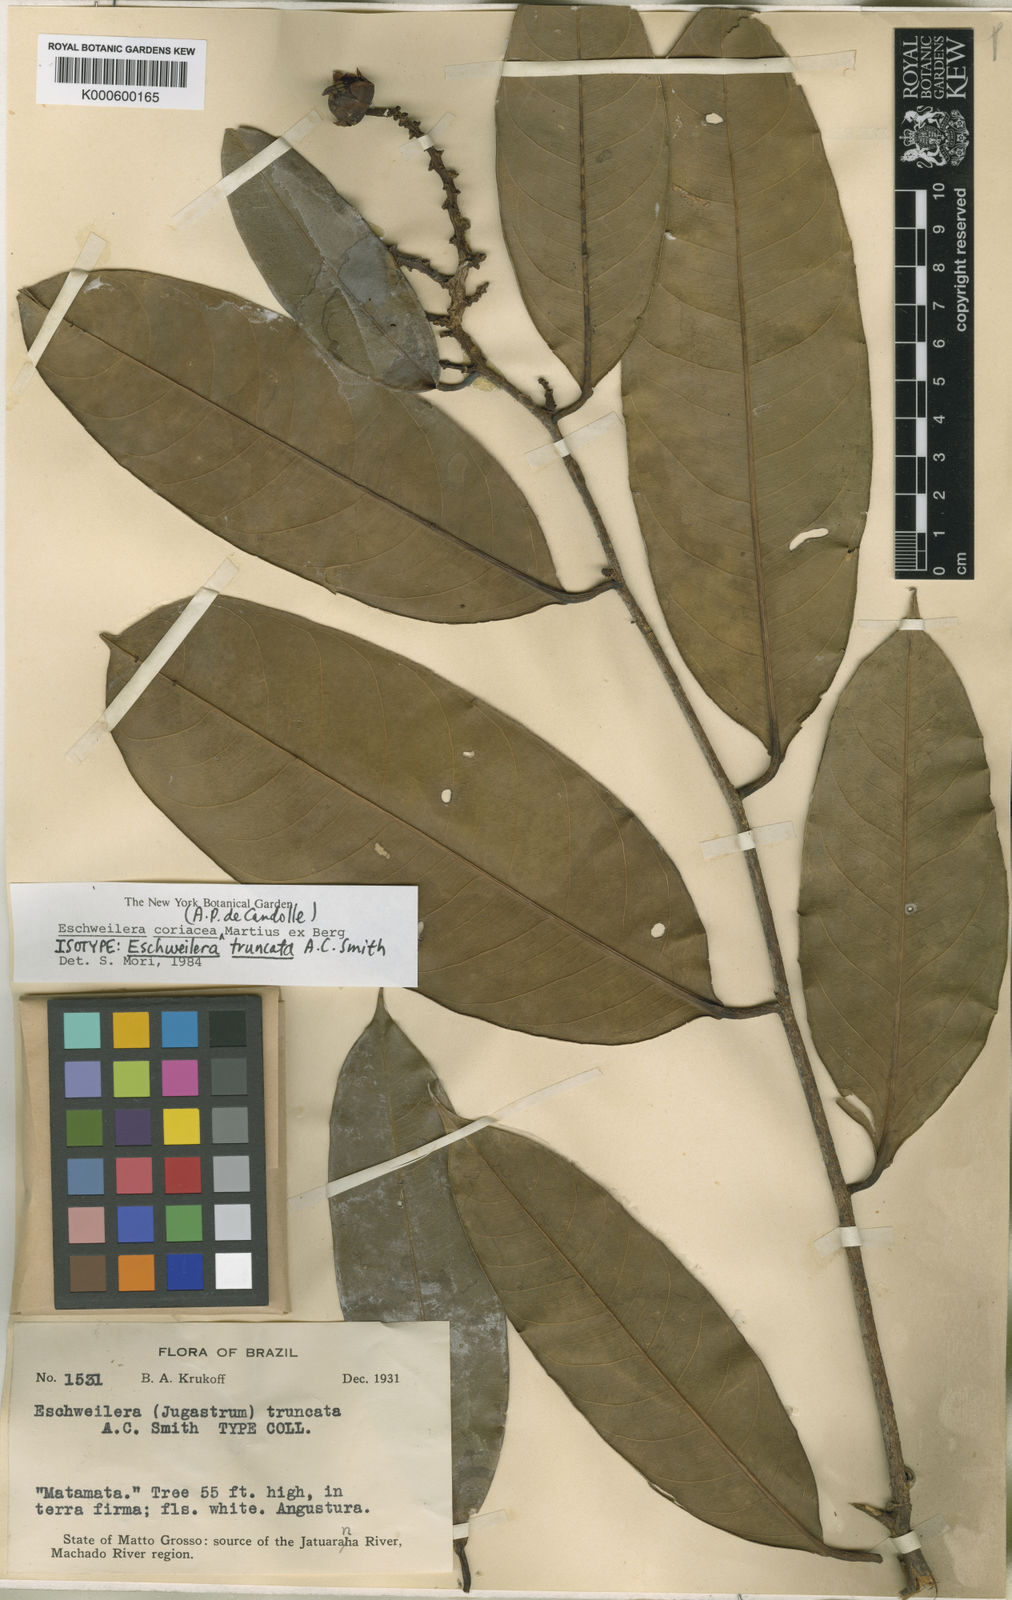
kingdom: Plantae
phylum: Tracheophyta
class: Magnoliopsida
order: Ericales
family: Lecythidaceae
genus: Eschweilera
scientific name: Eschweilera coriacea
